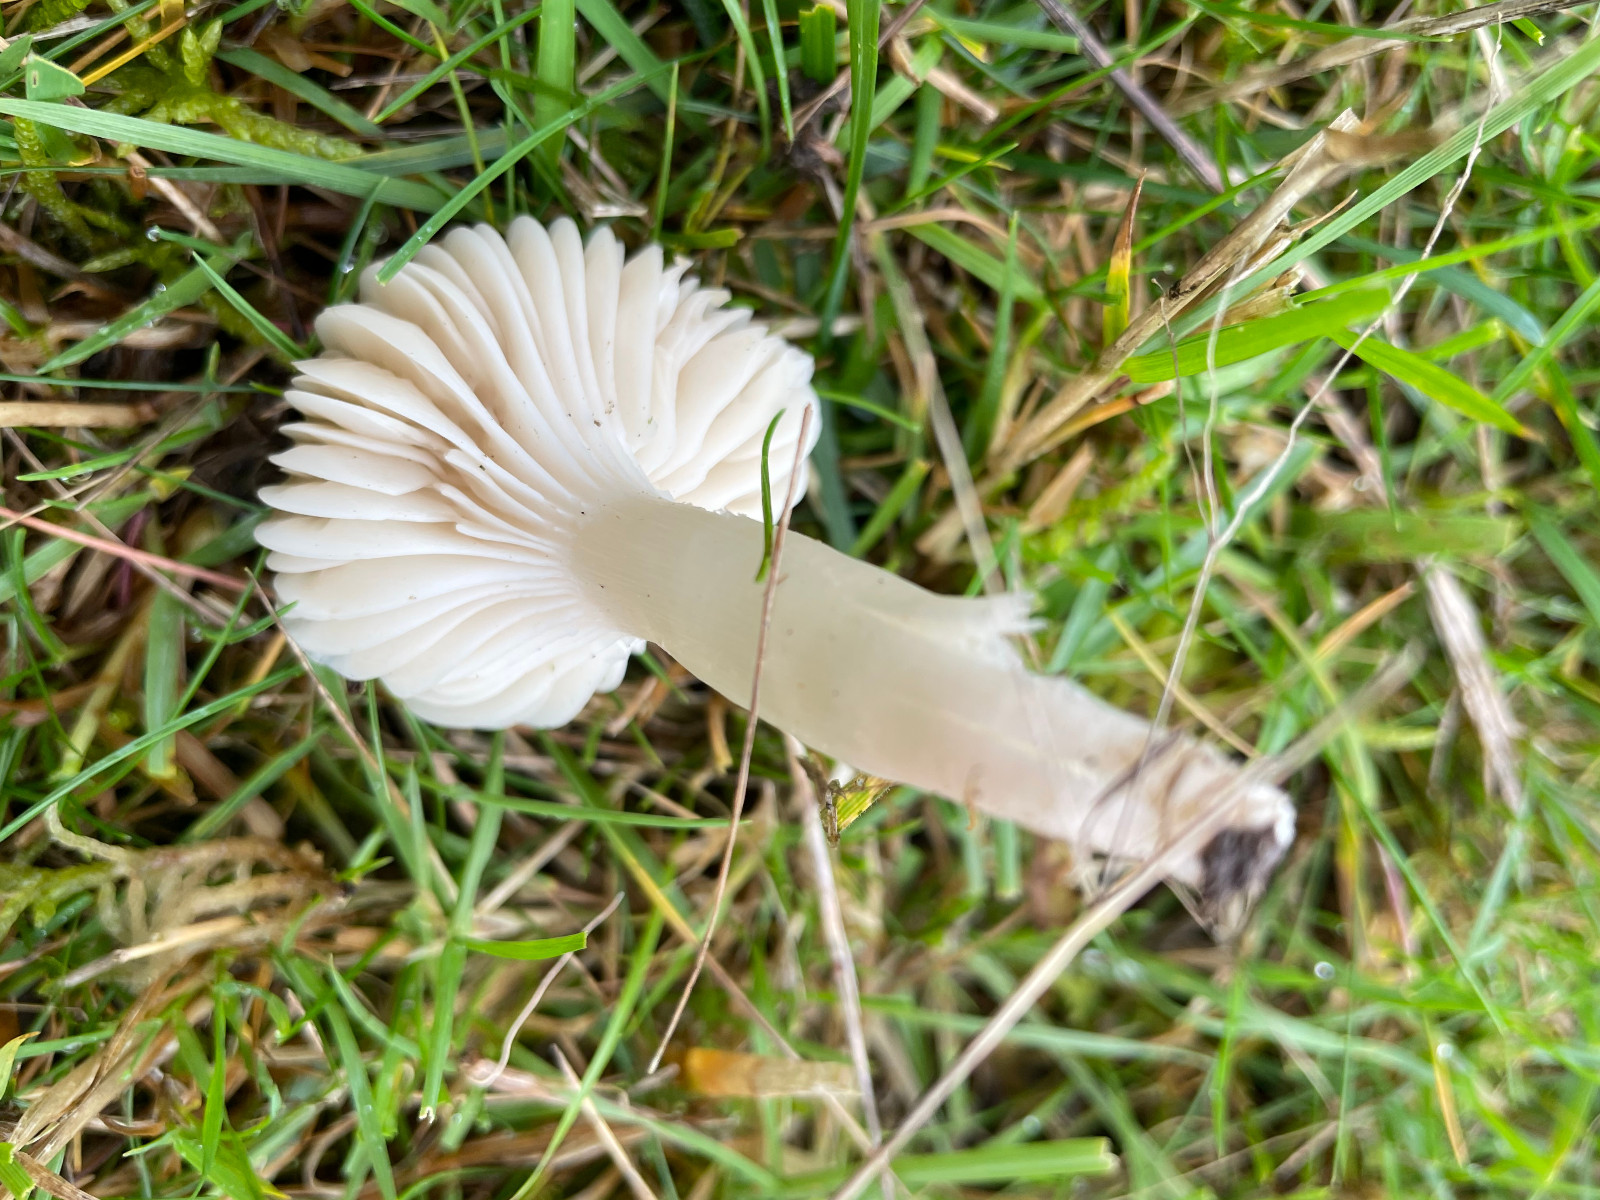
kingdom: Fungi
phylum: Basidiomycota
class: Agaricomycetes
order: Agaricales
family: Hygrophoraceae
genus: Cuphophyllus
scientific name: Cuphophyllus
